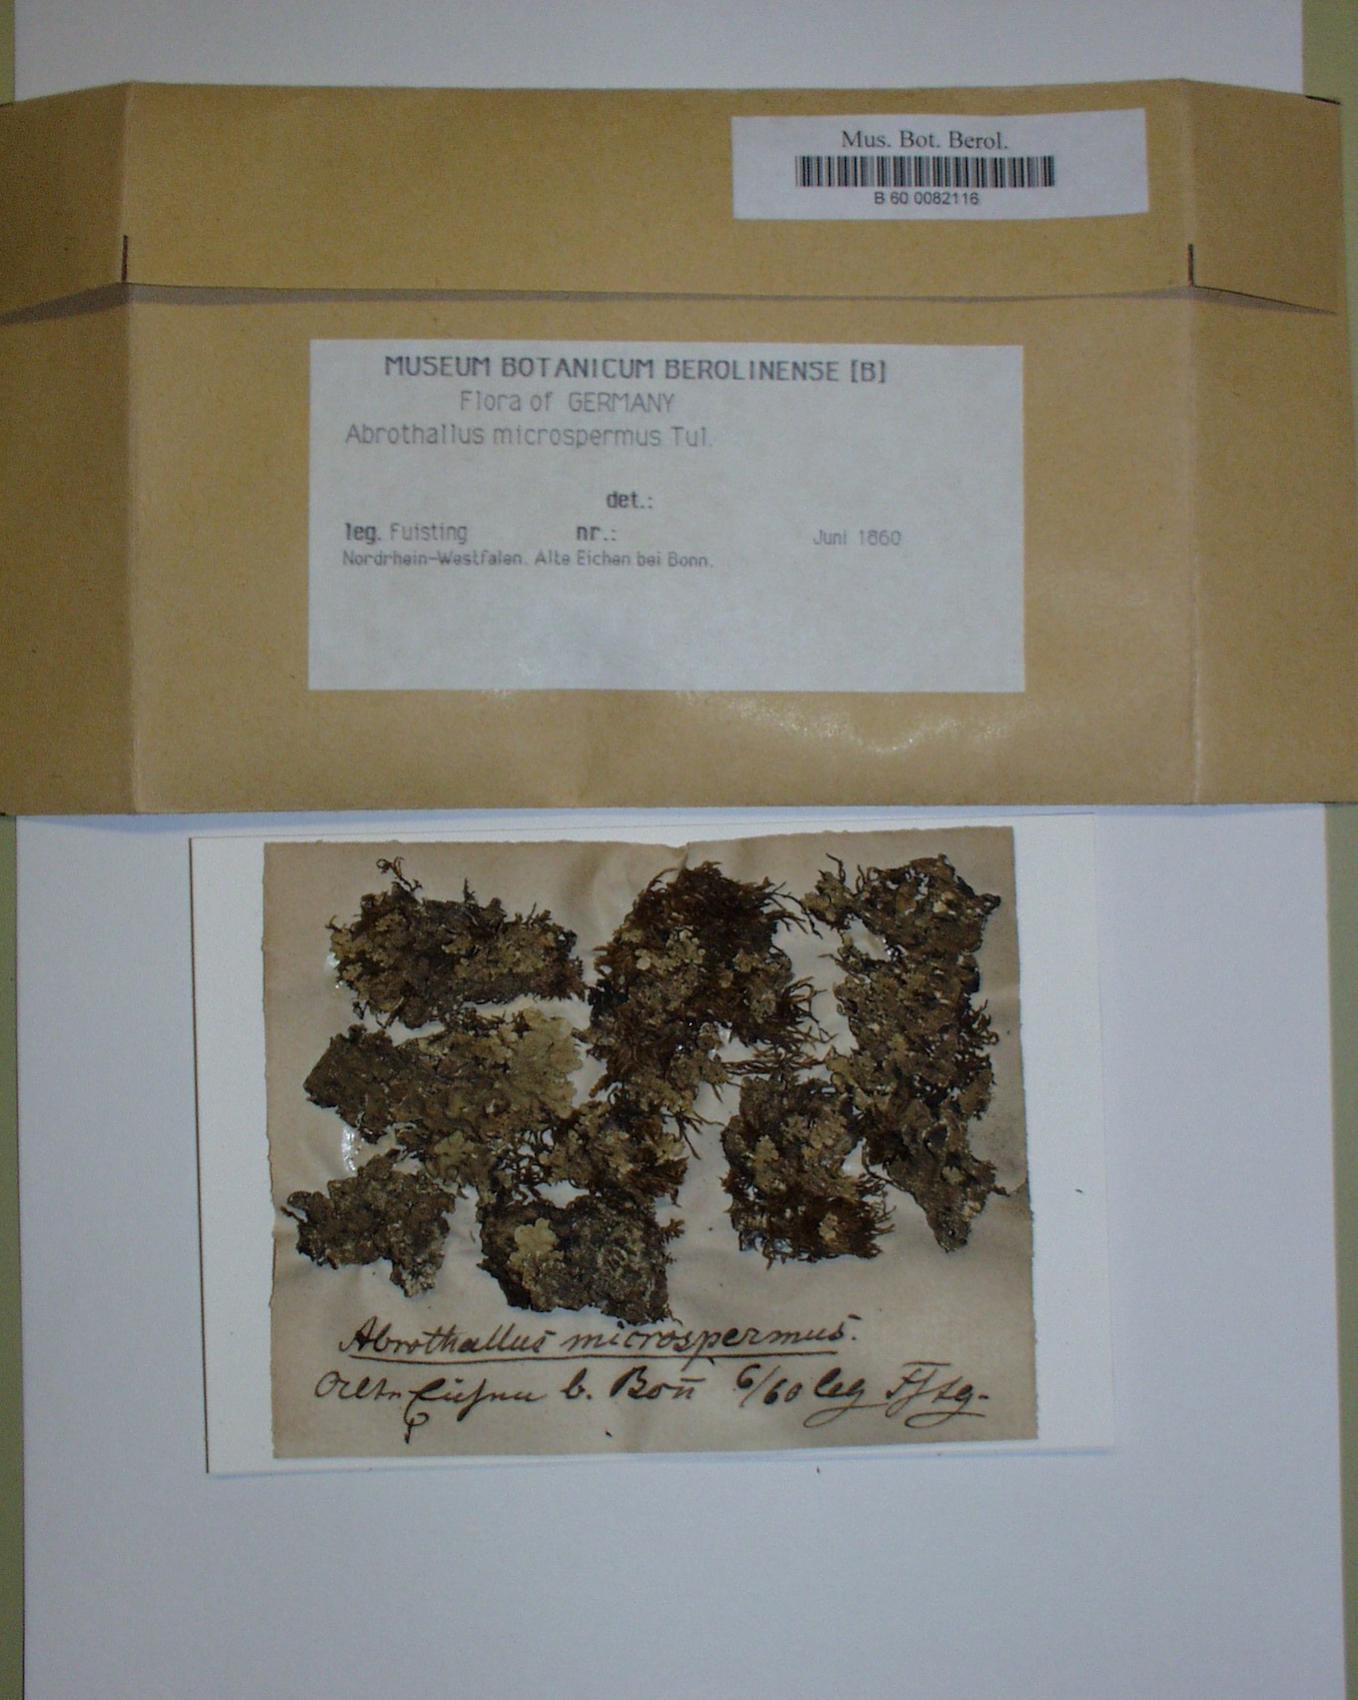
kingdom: Fungi
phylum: Ascomycota
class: Dothideomycetes
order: Abrothallales
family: Abrothallaceae
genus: Abrothallus
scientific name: Abrothallus microspermus
